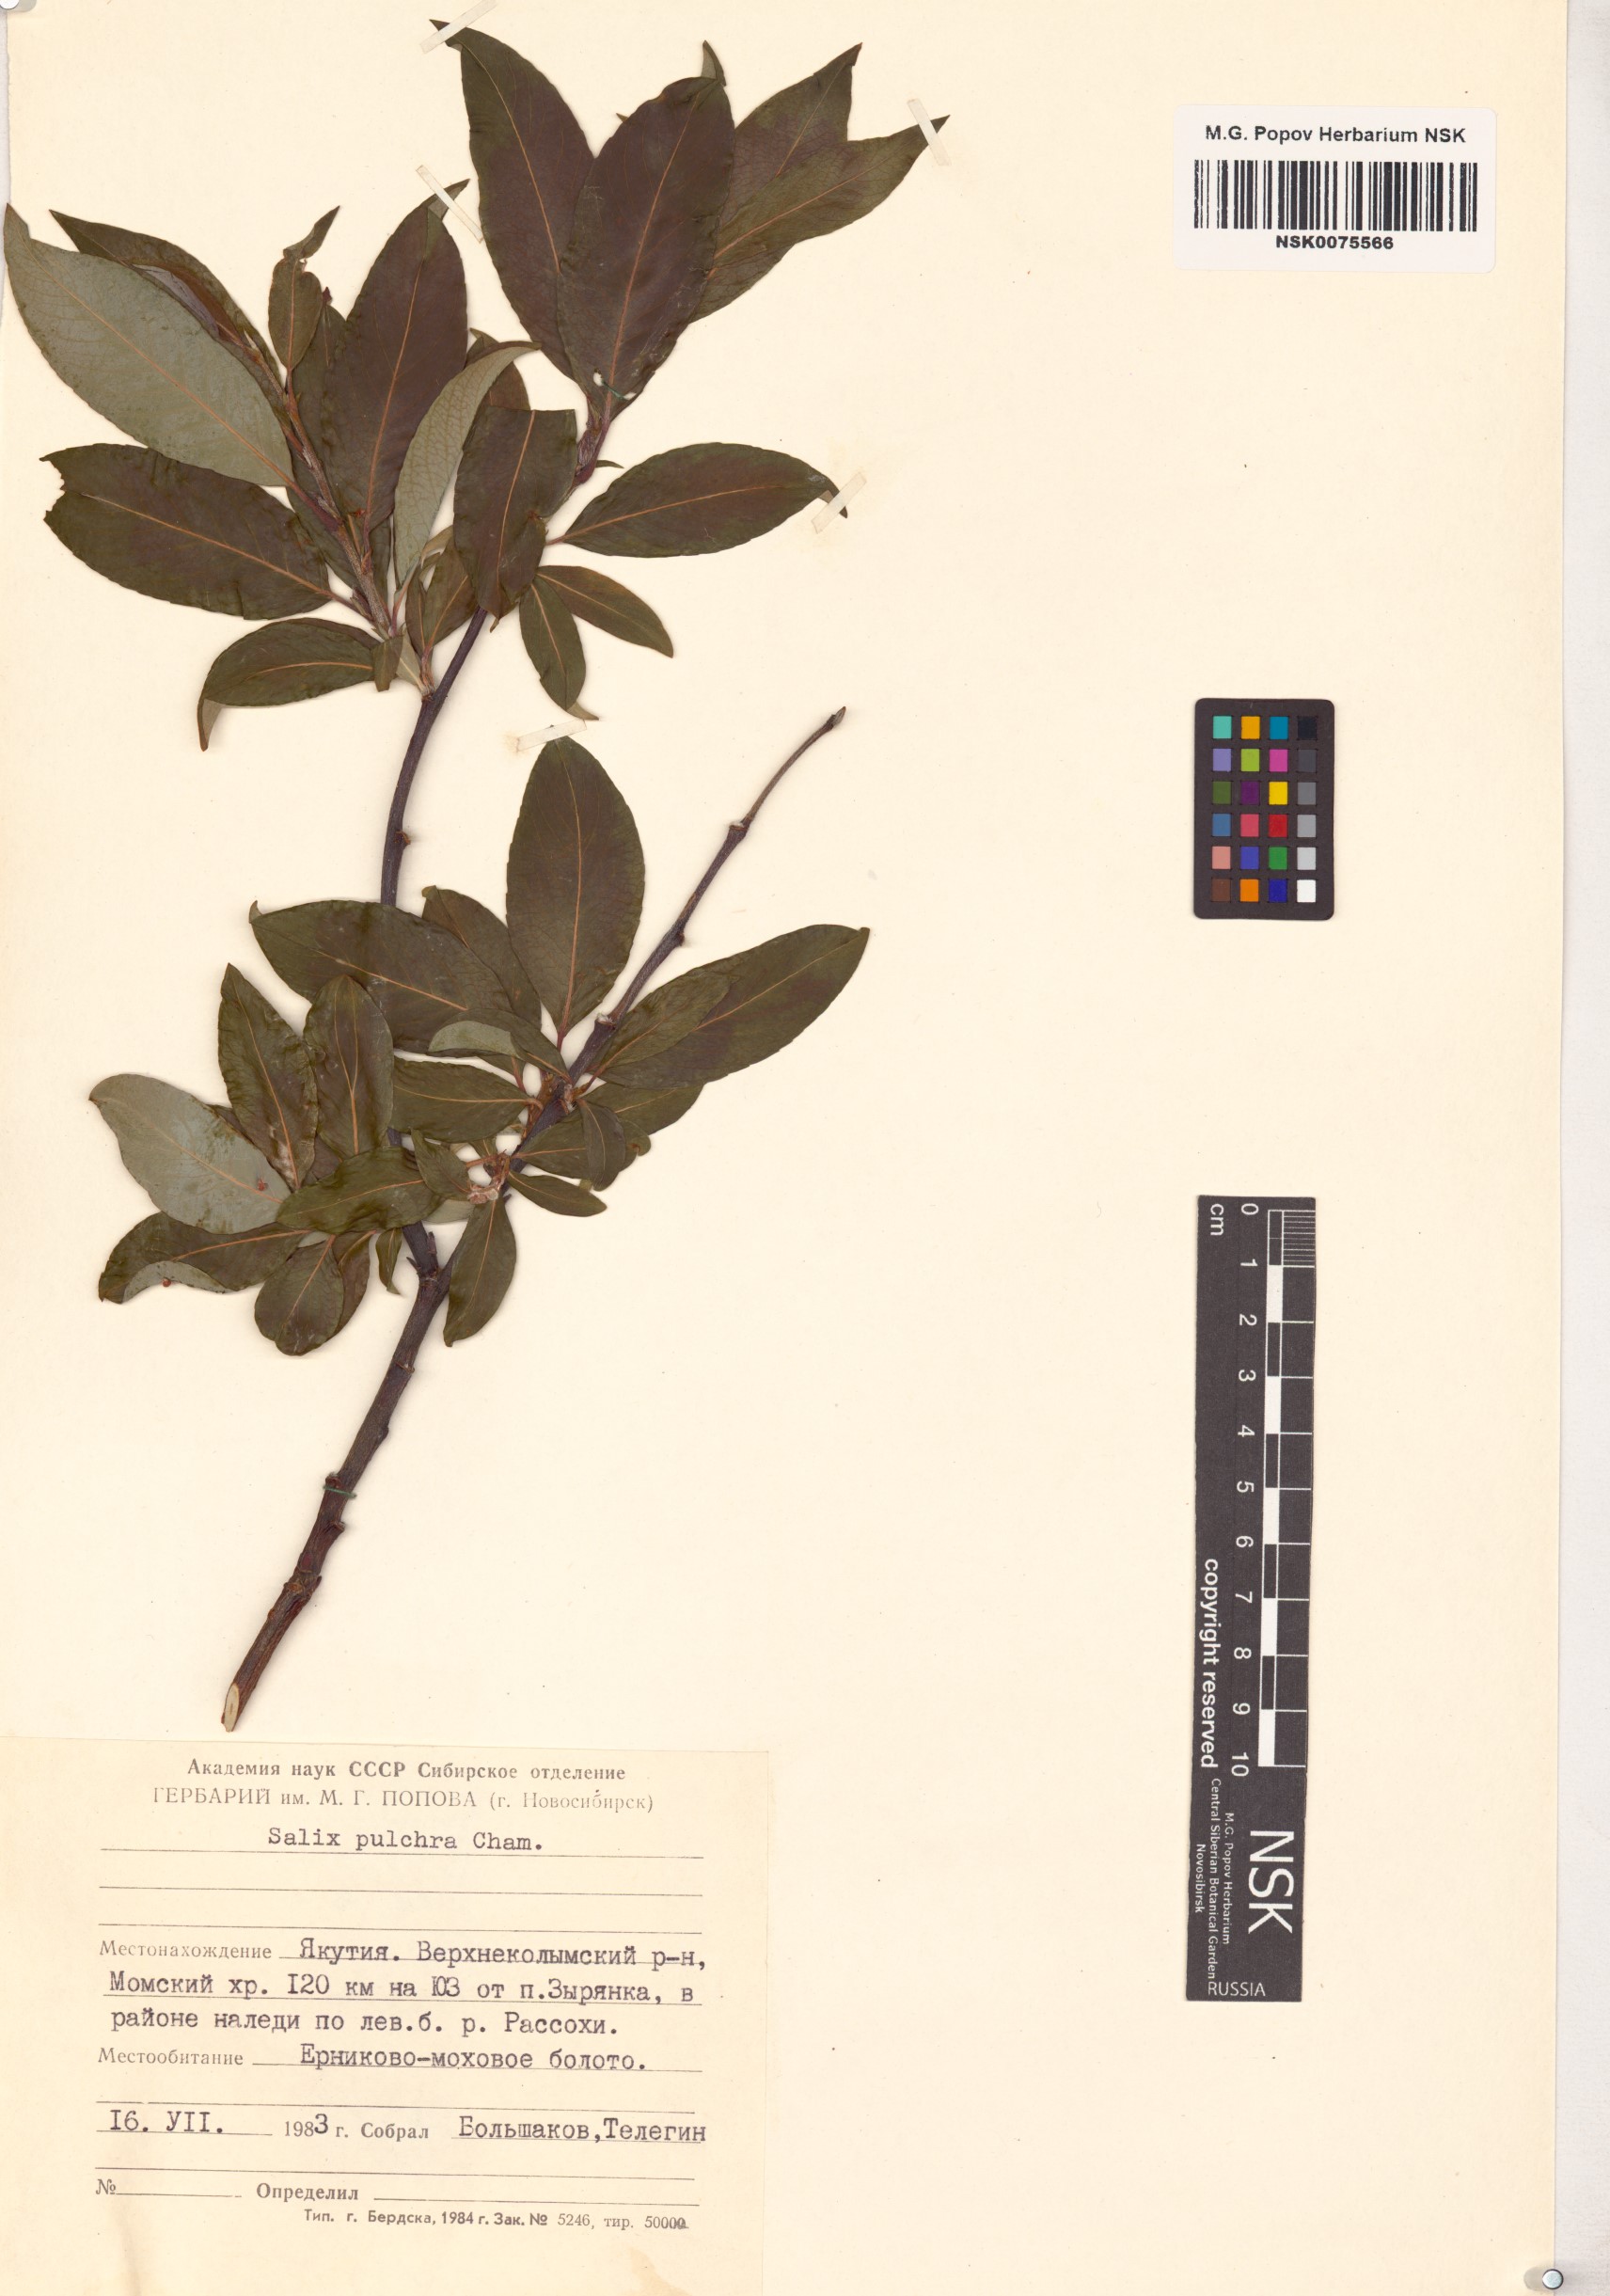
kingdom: Plantae
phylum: Tracheophyta
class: Magnoliopsida
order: Malpighiales
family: Salicaceae
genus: Salix
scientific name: Salix pulchra
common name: Diamond-leaved willow
